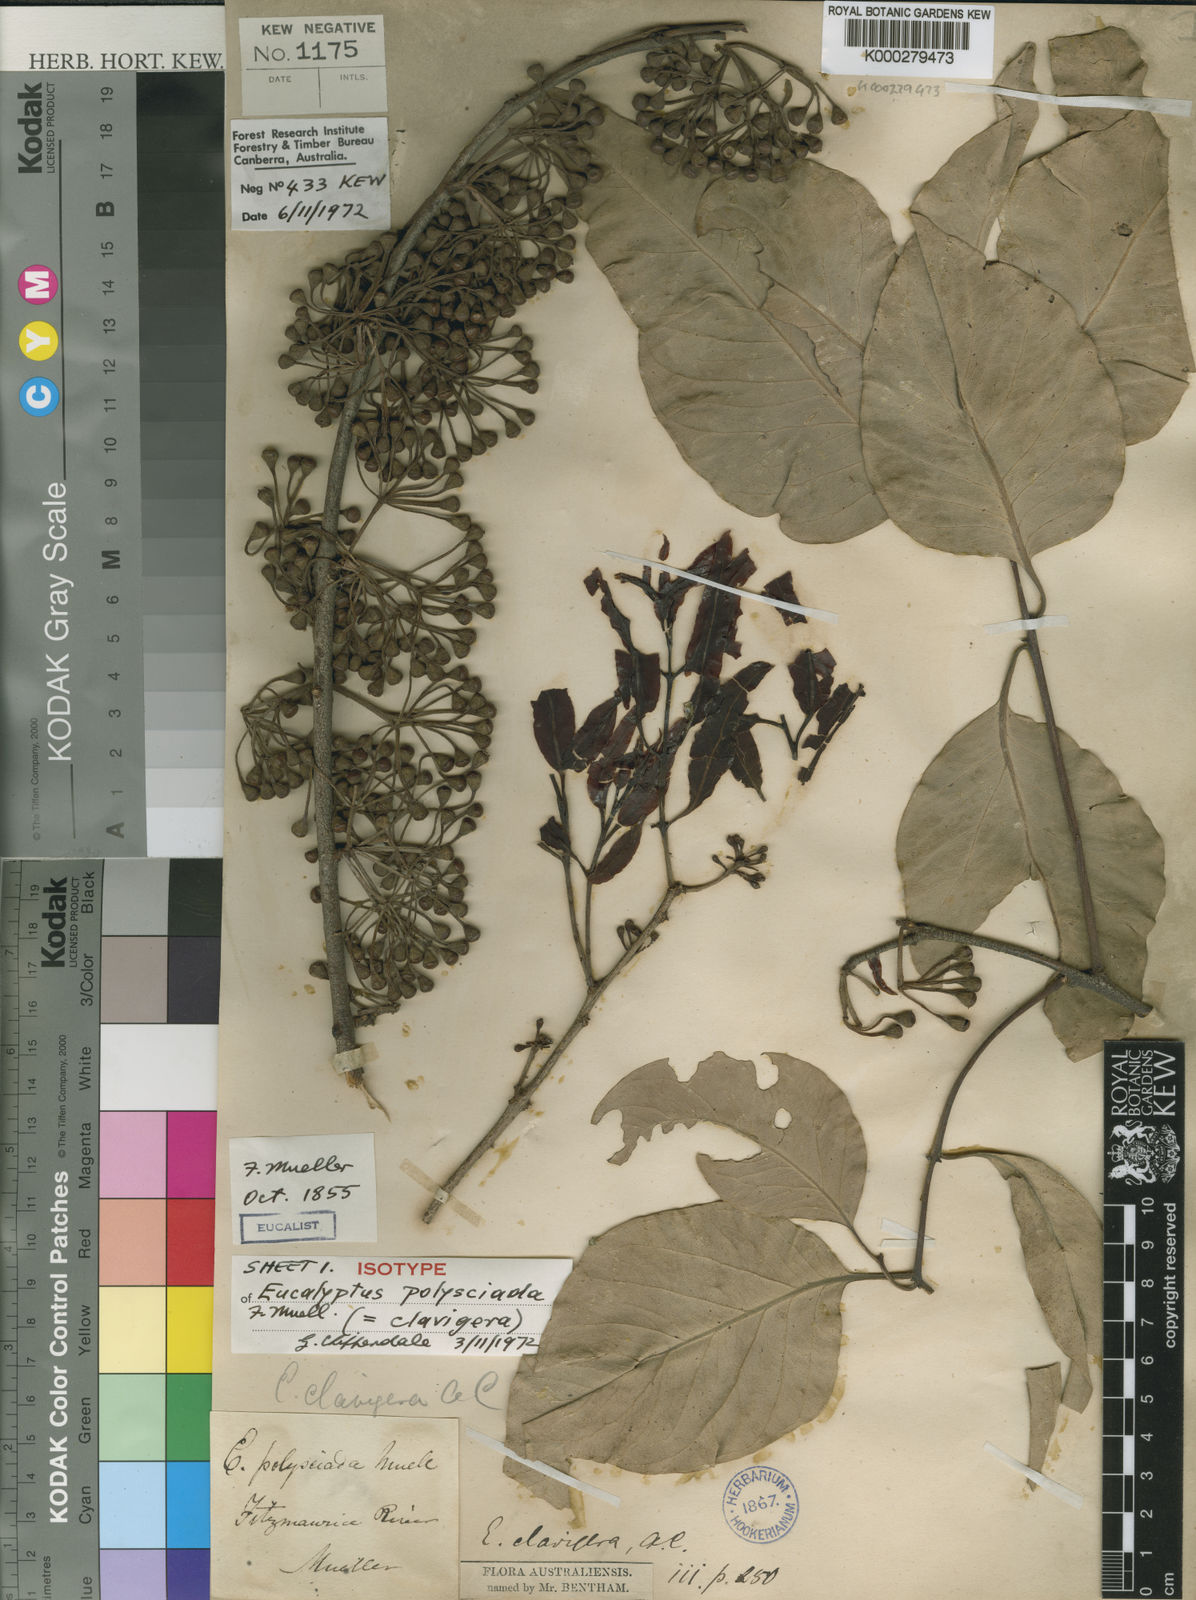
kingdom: Plantae
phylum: Tracheophyta
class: Magnoliopsida
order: Myrtales
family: Myrtaceae
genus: Corymbia
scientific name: Corymbia clavigera
